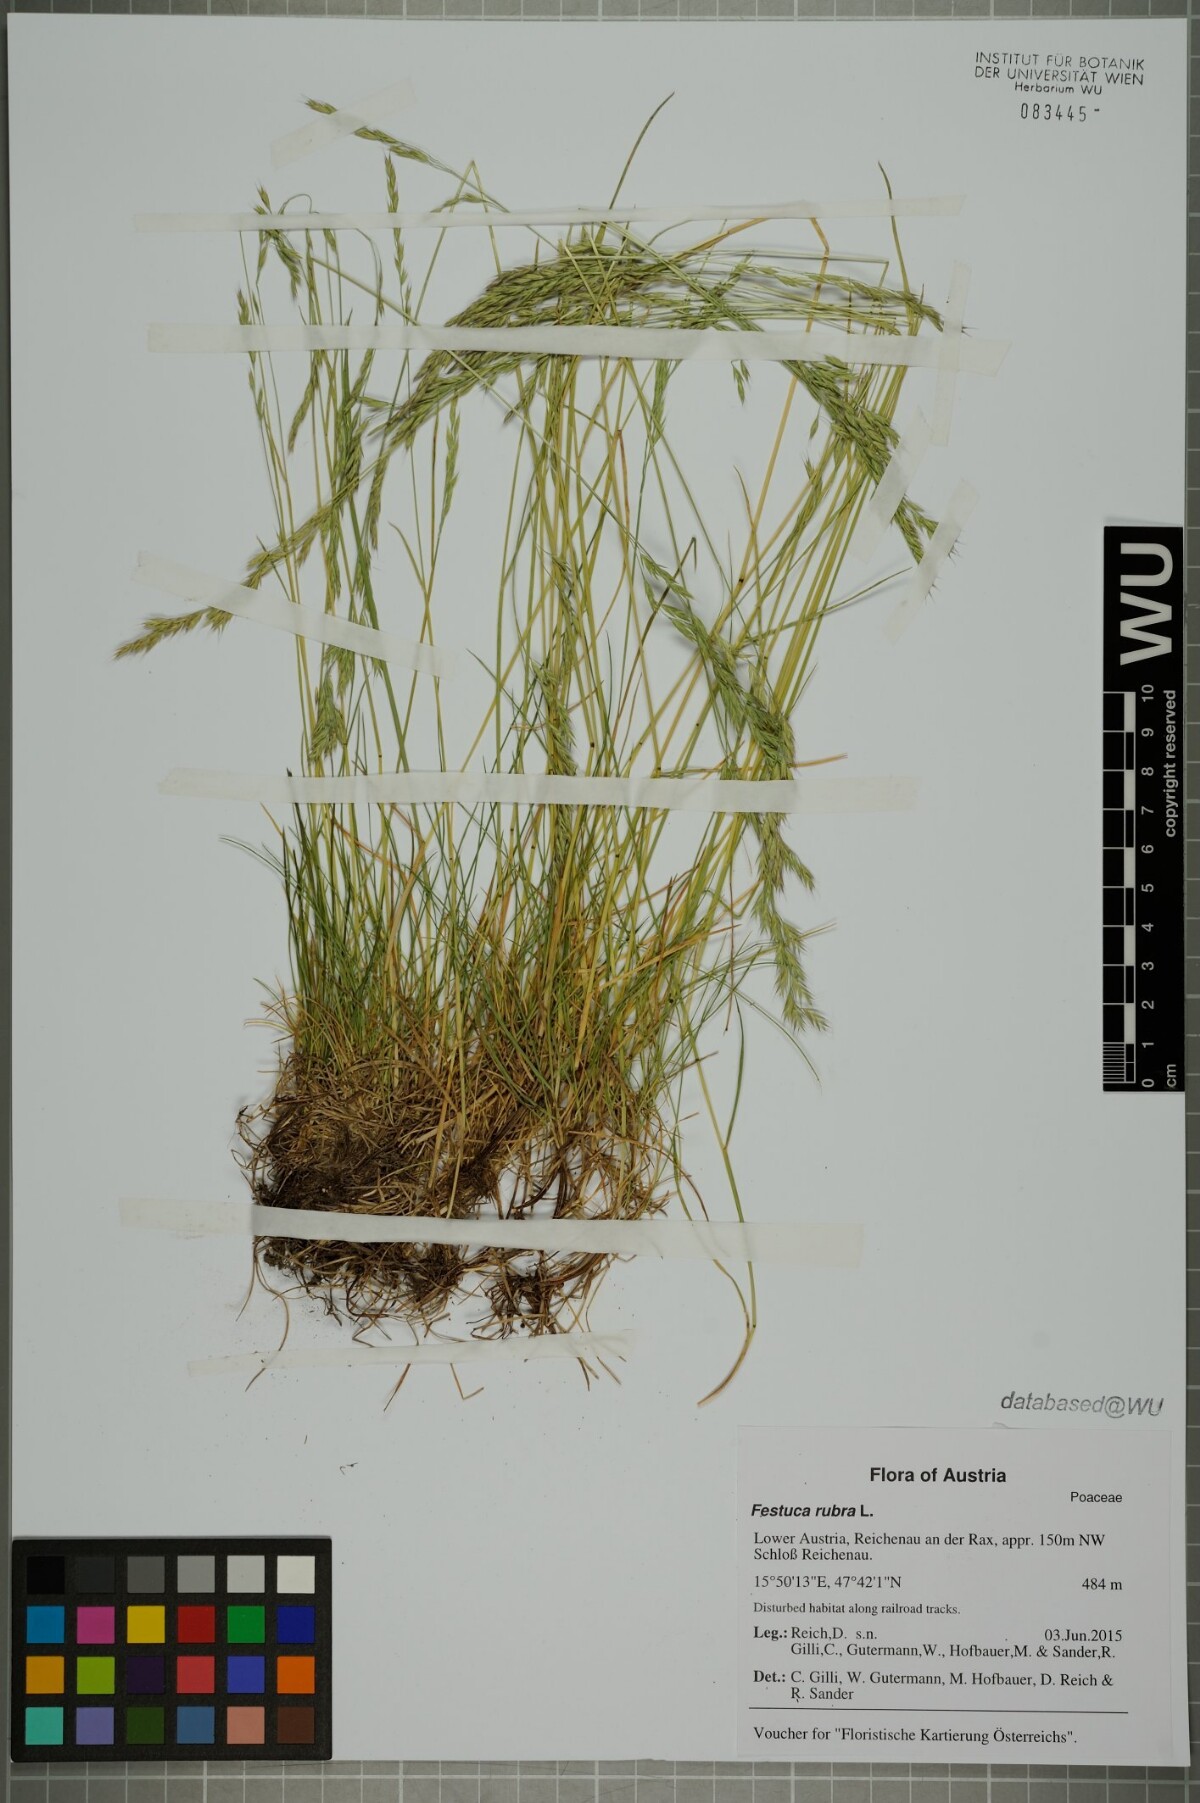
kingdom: Plantae
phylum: Tracheophyta
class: Liliopsida
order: Poales
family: Poaceae
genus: Festuca
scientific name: Festuca rubra
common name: Red fescue
